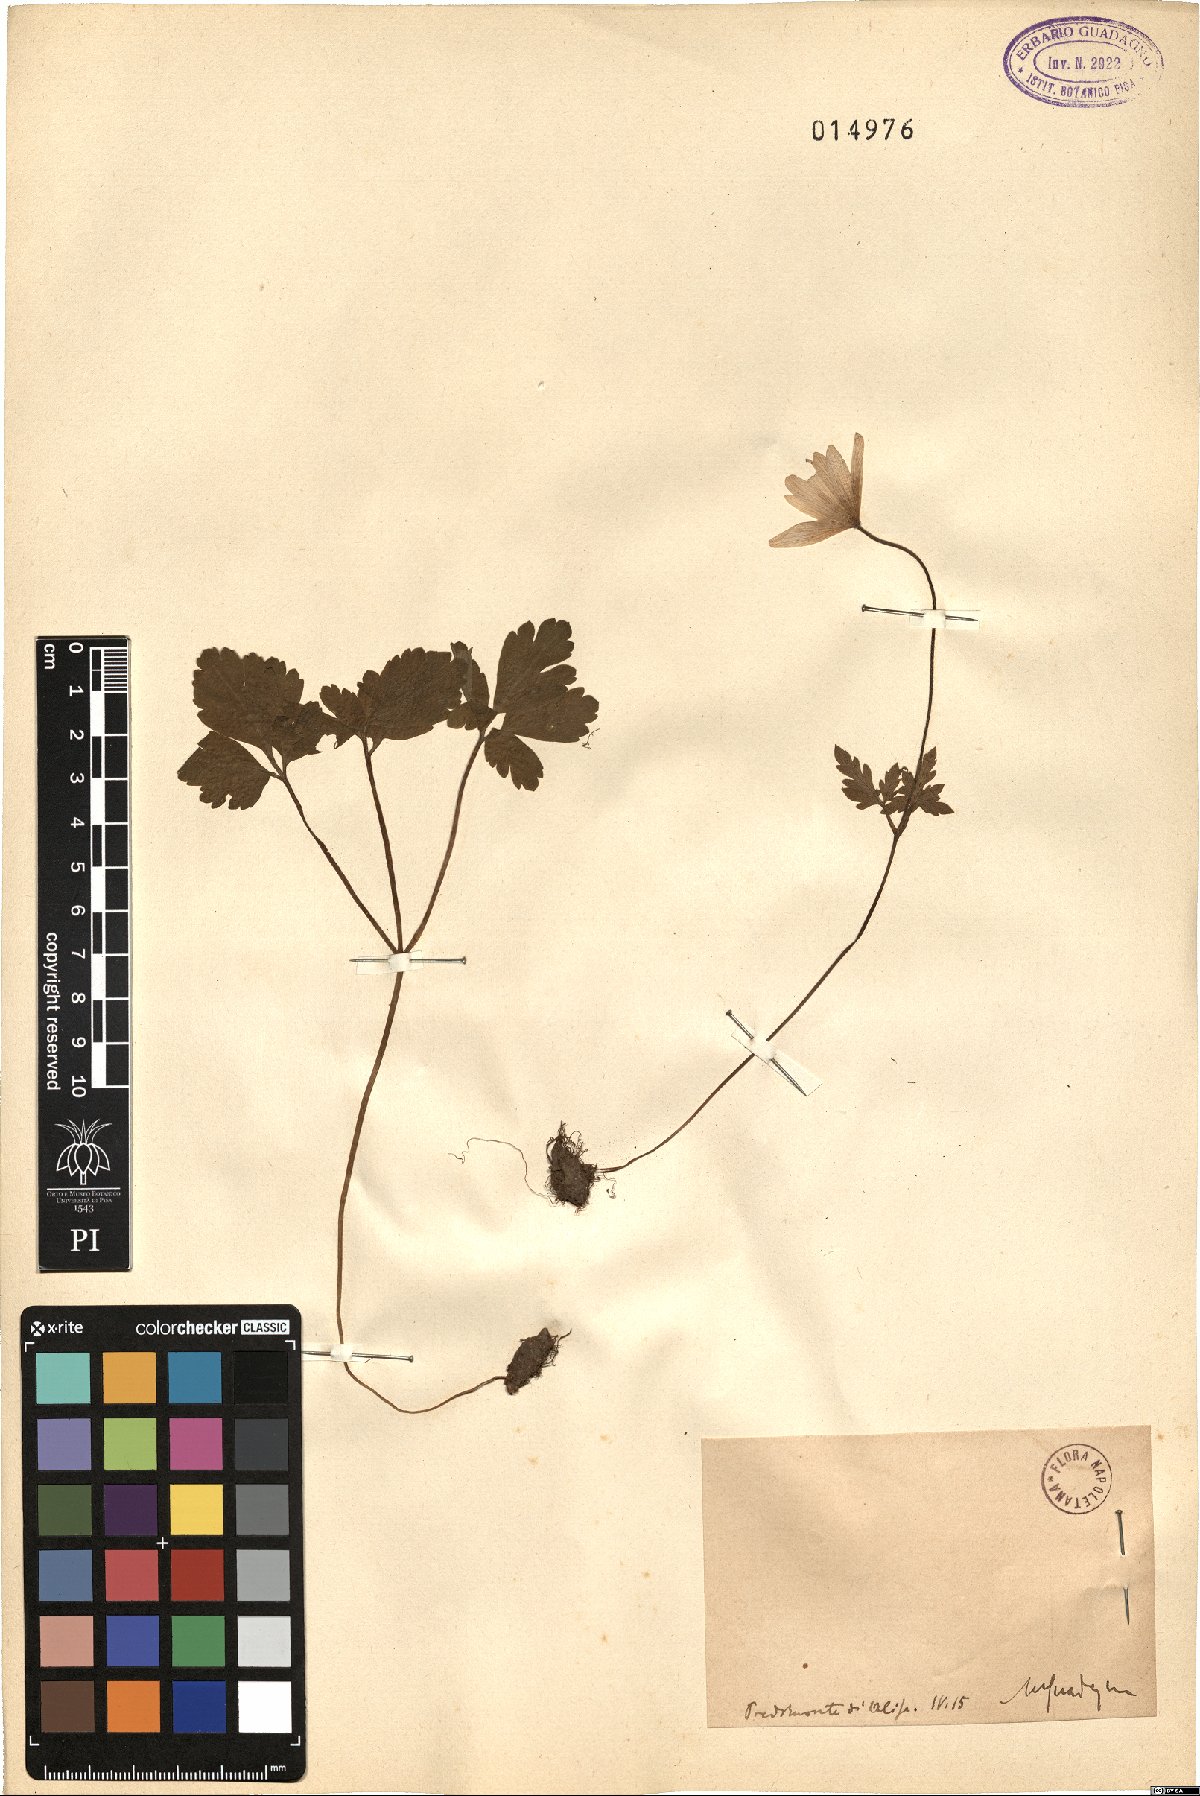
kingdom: Plantae
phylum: Tracheophyta
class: Magnoliopsida
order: Ranunculales
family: Ranunculaceae
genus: Anemone
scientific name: Anemone apennina
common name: Blue anemone
